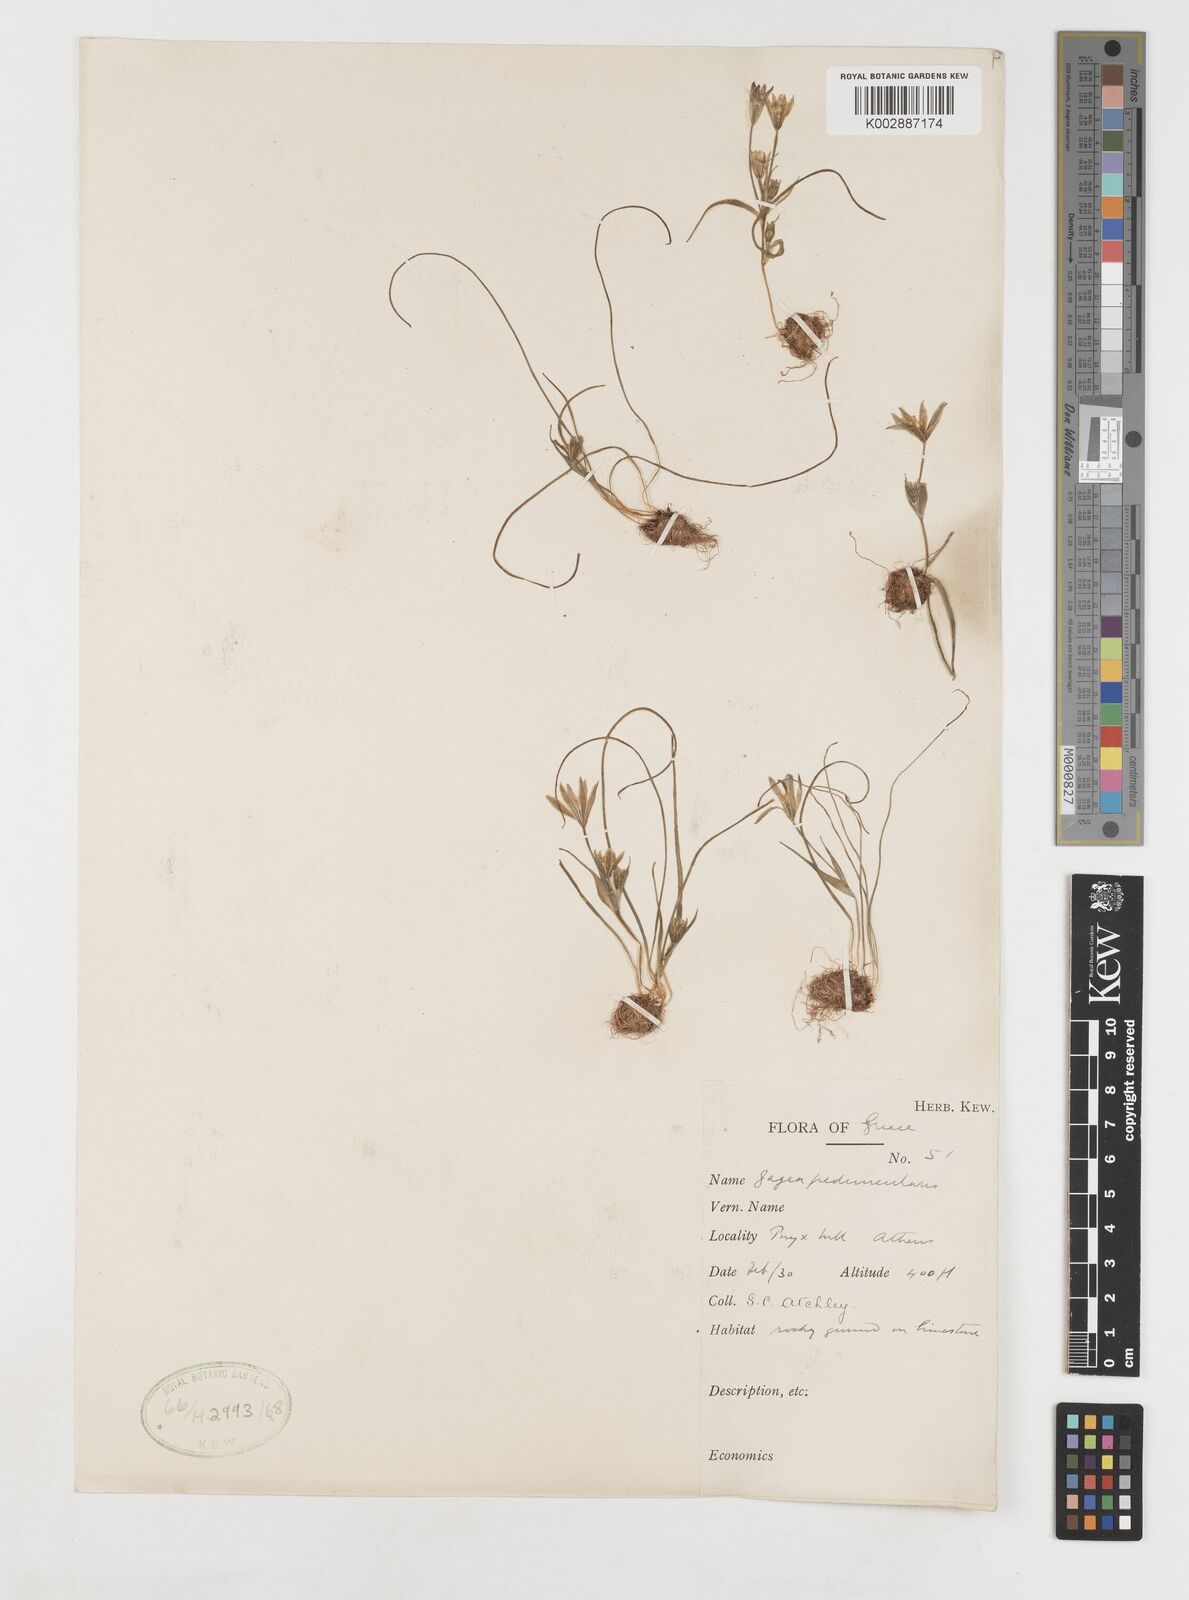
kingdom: Plantae
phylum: Tracheophyta
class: Liliopsida
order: Liliales
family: Liliaceae
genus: Gagea
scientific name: Gagea peduncularis
